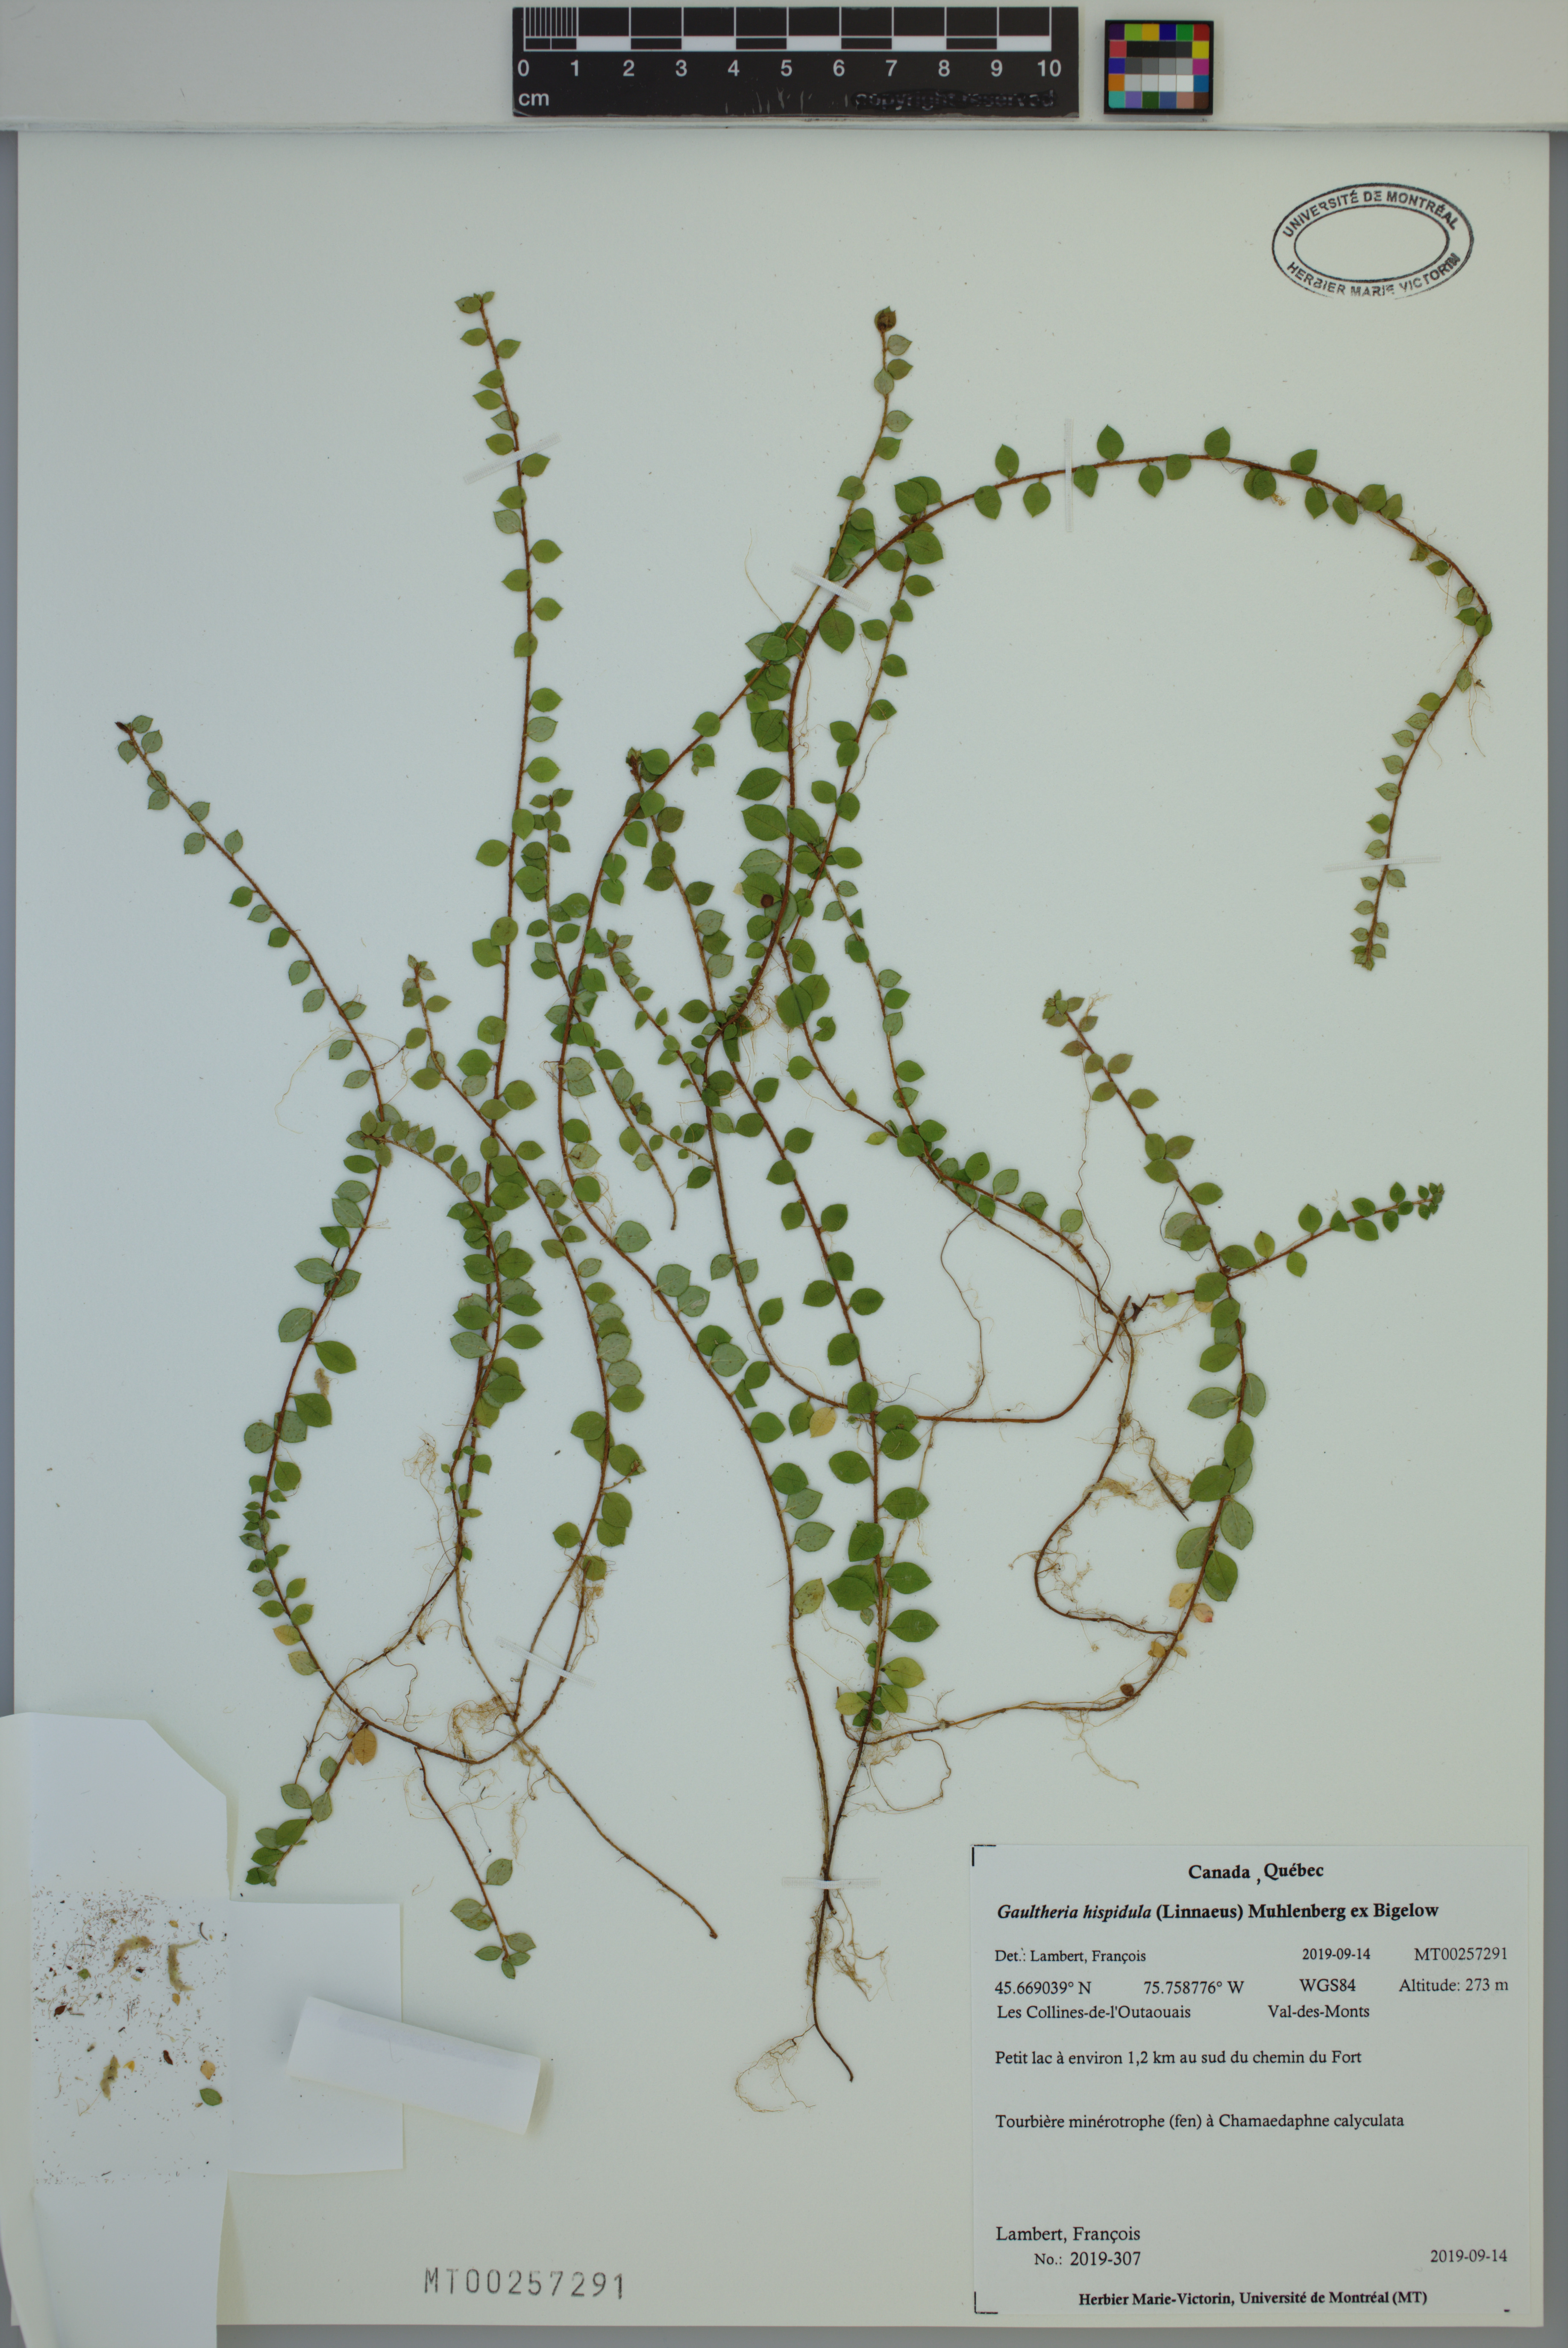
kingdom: Plantae
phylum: Tracheophyta
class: Magnoliopsida
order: Ericales
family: Ericaceae
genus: Gaultheria
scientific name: Gaultheria hispidula
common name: Cancer wintergreen
